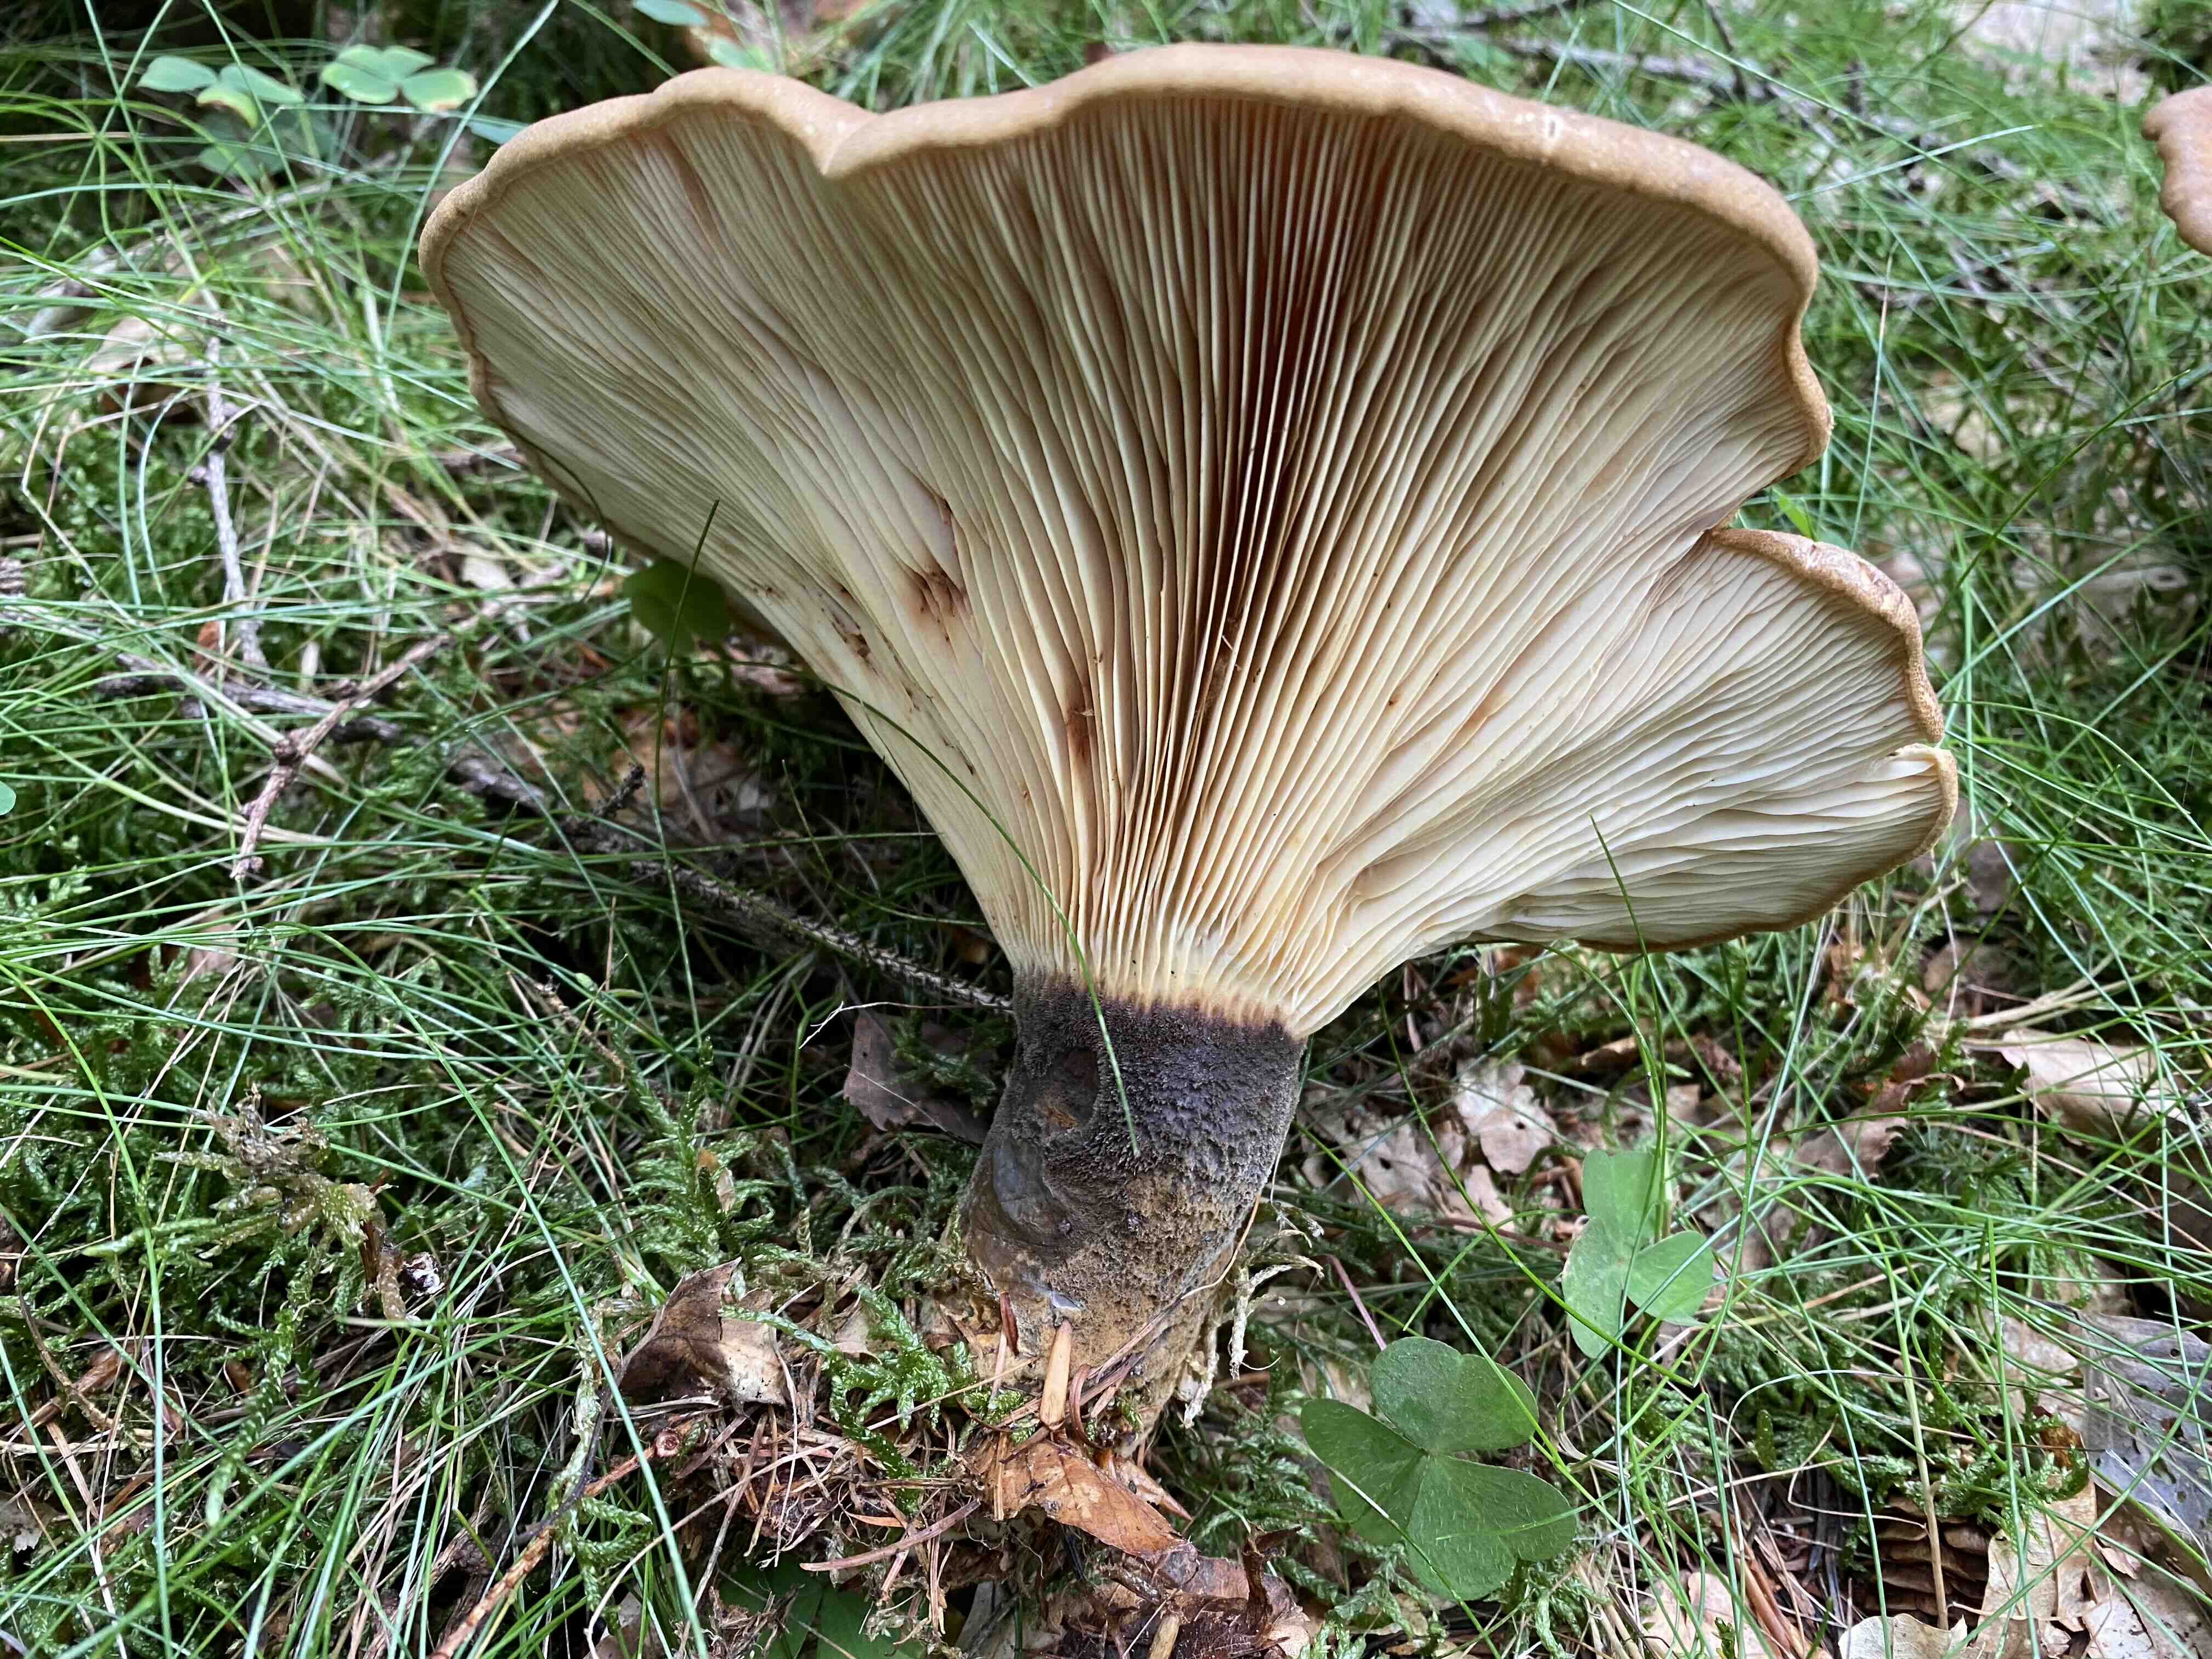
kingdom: Fungi
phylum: Basidiomycota
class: Agaricomycetes
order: Boletales
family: Tapinellaceae
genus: Tapinella
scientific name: Tapinella atrotomentosa
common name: sortfiltet viftesvamp
